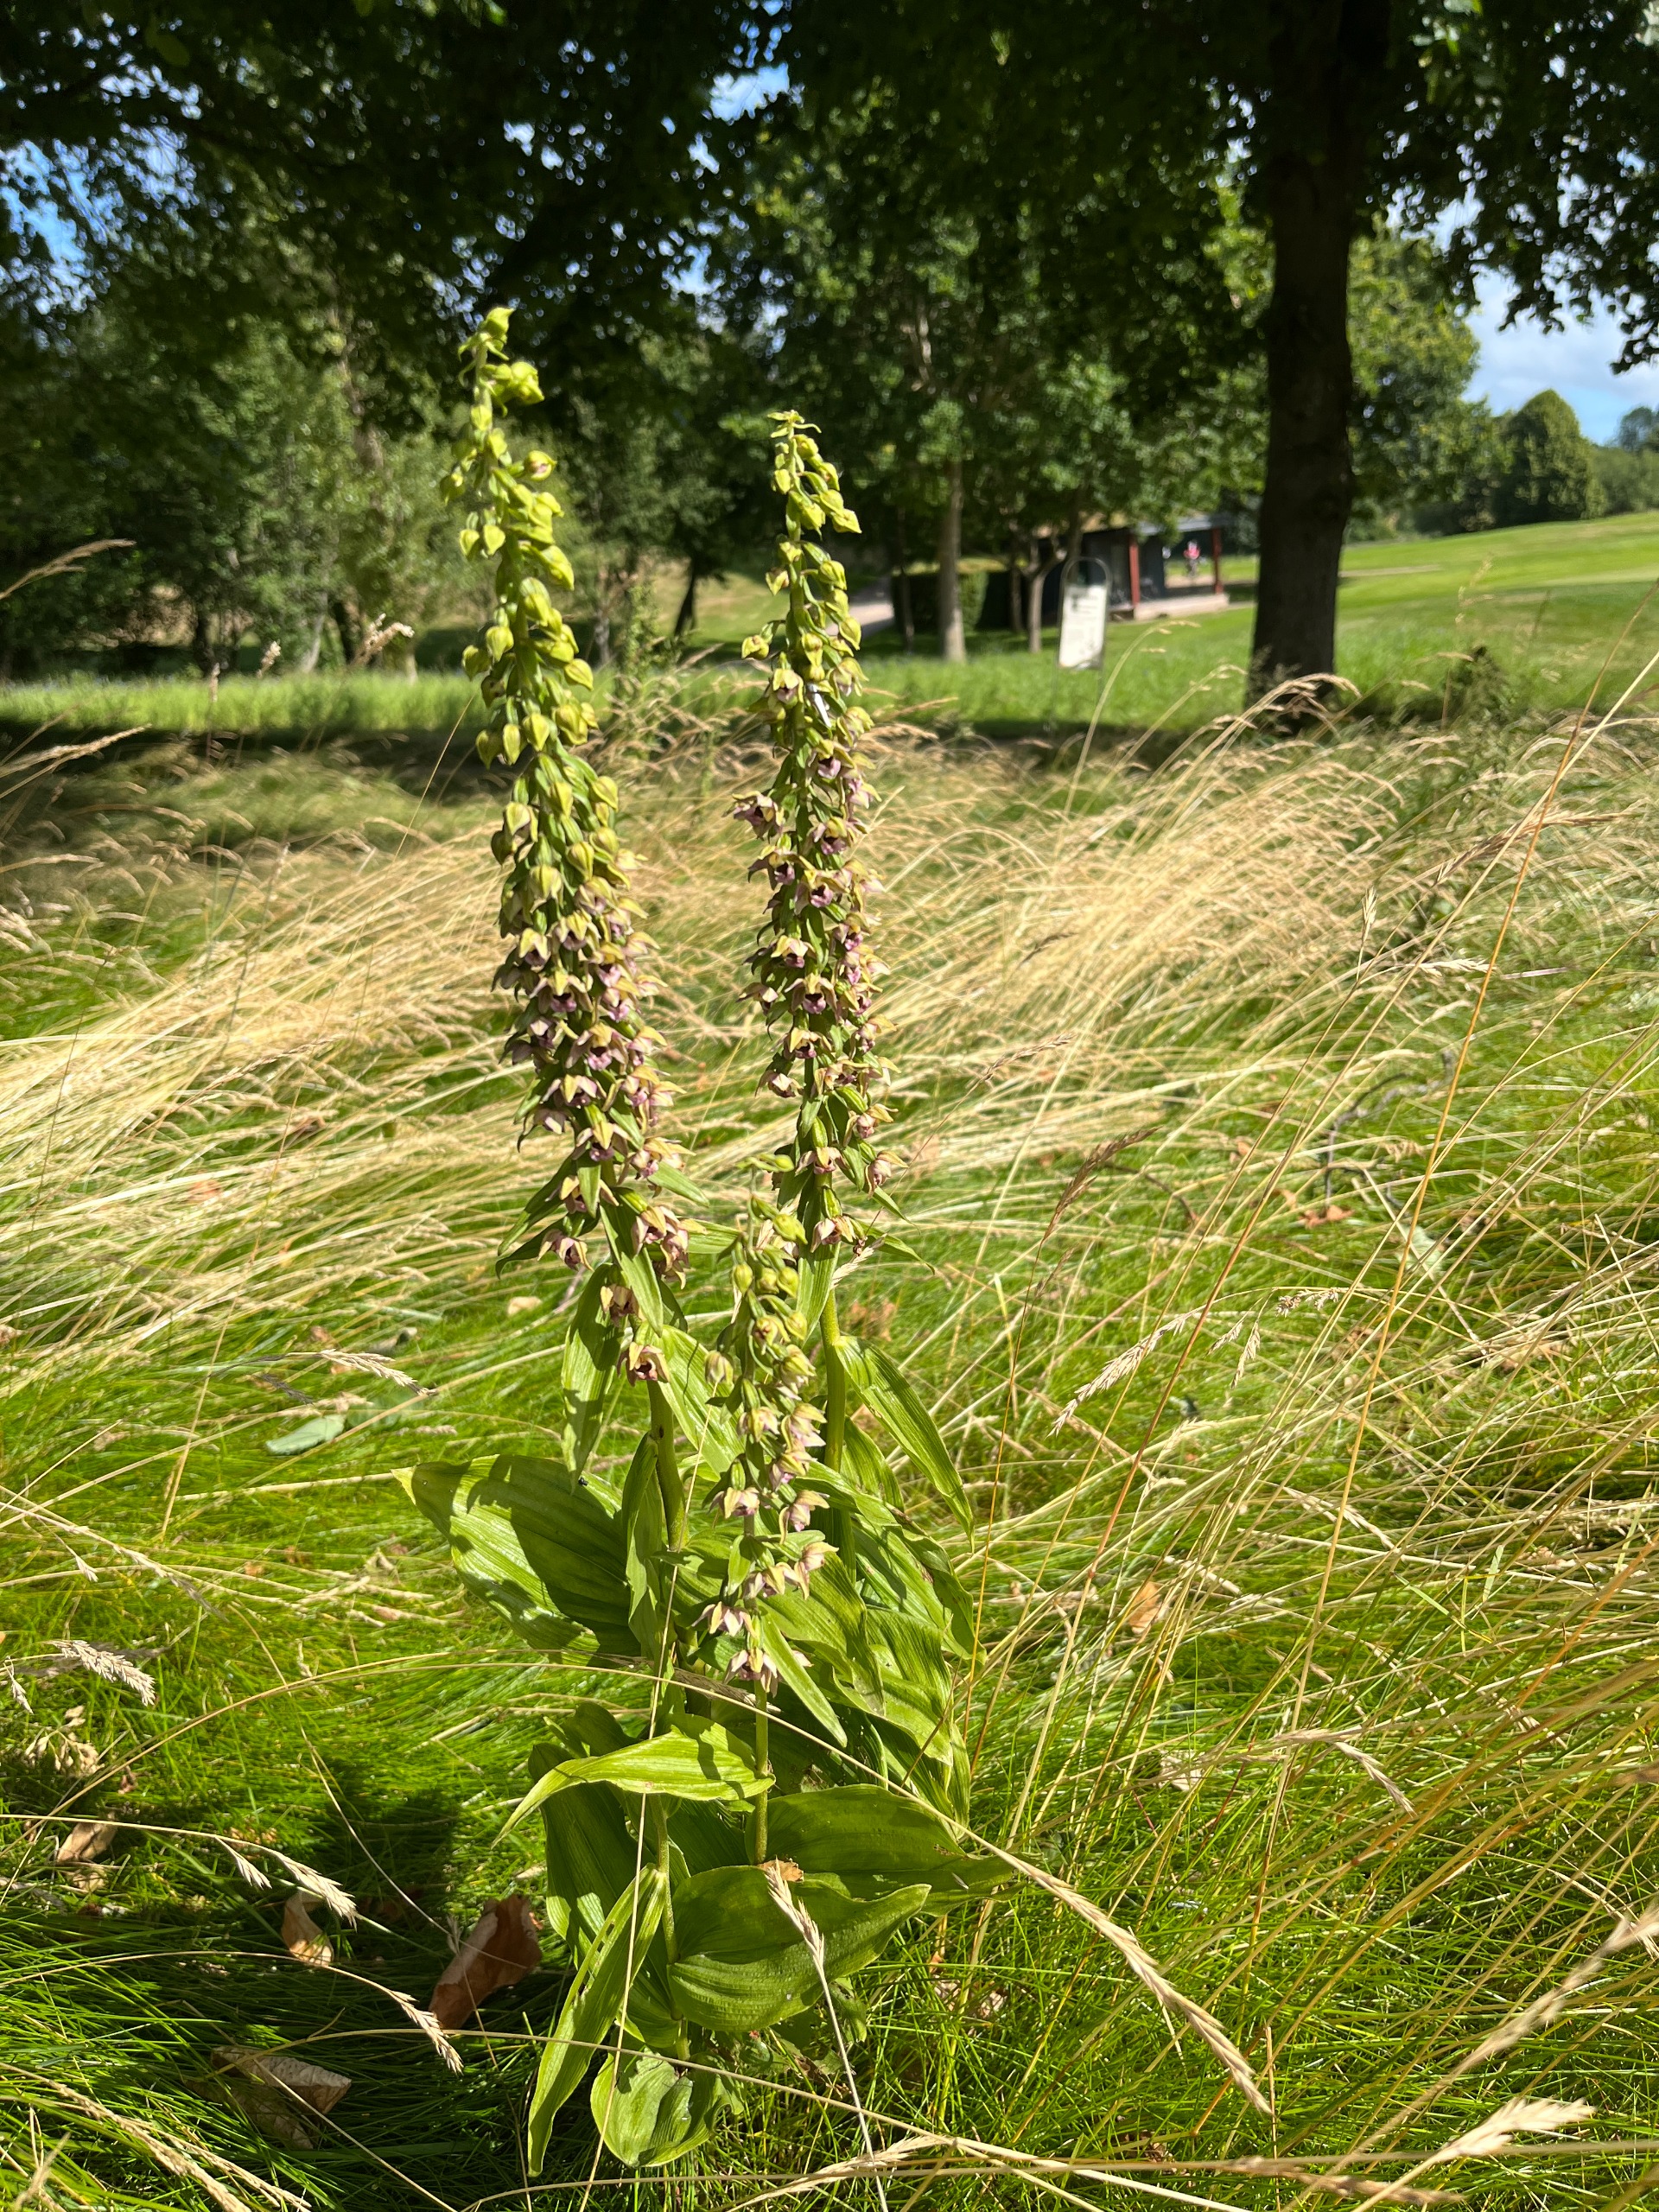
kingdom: Plantae
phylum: Tracheophyta
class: Liliopsida
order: Asparagales
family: Orchidaceae
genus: Epipactis
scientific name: Epipactis helleborine
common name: Skov-hullæbe
